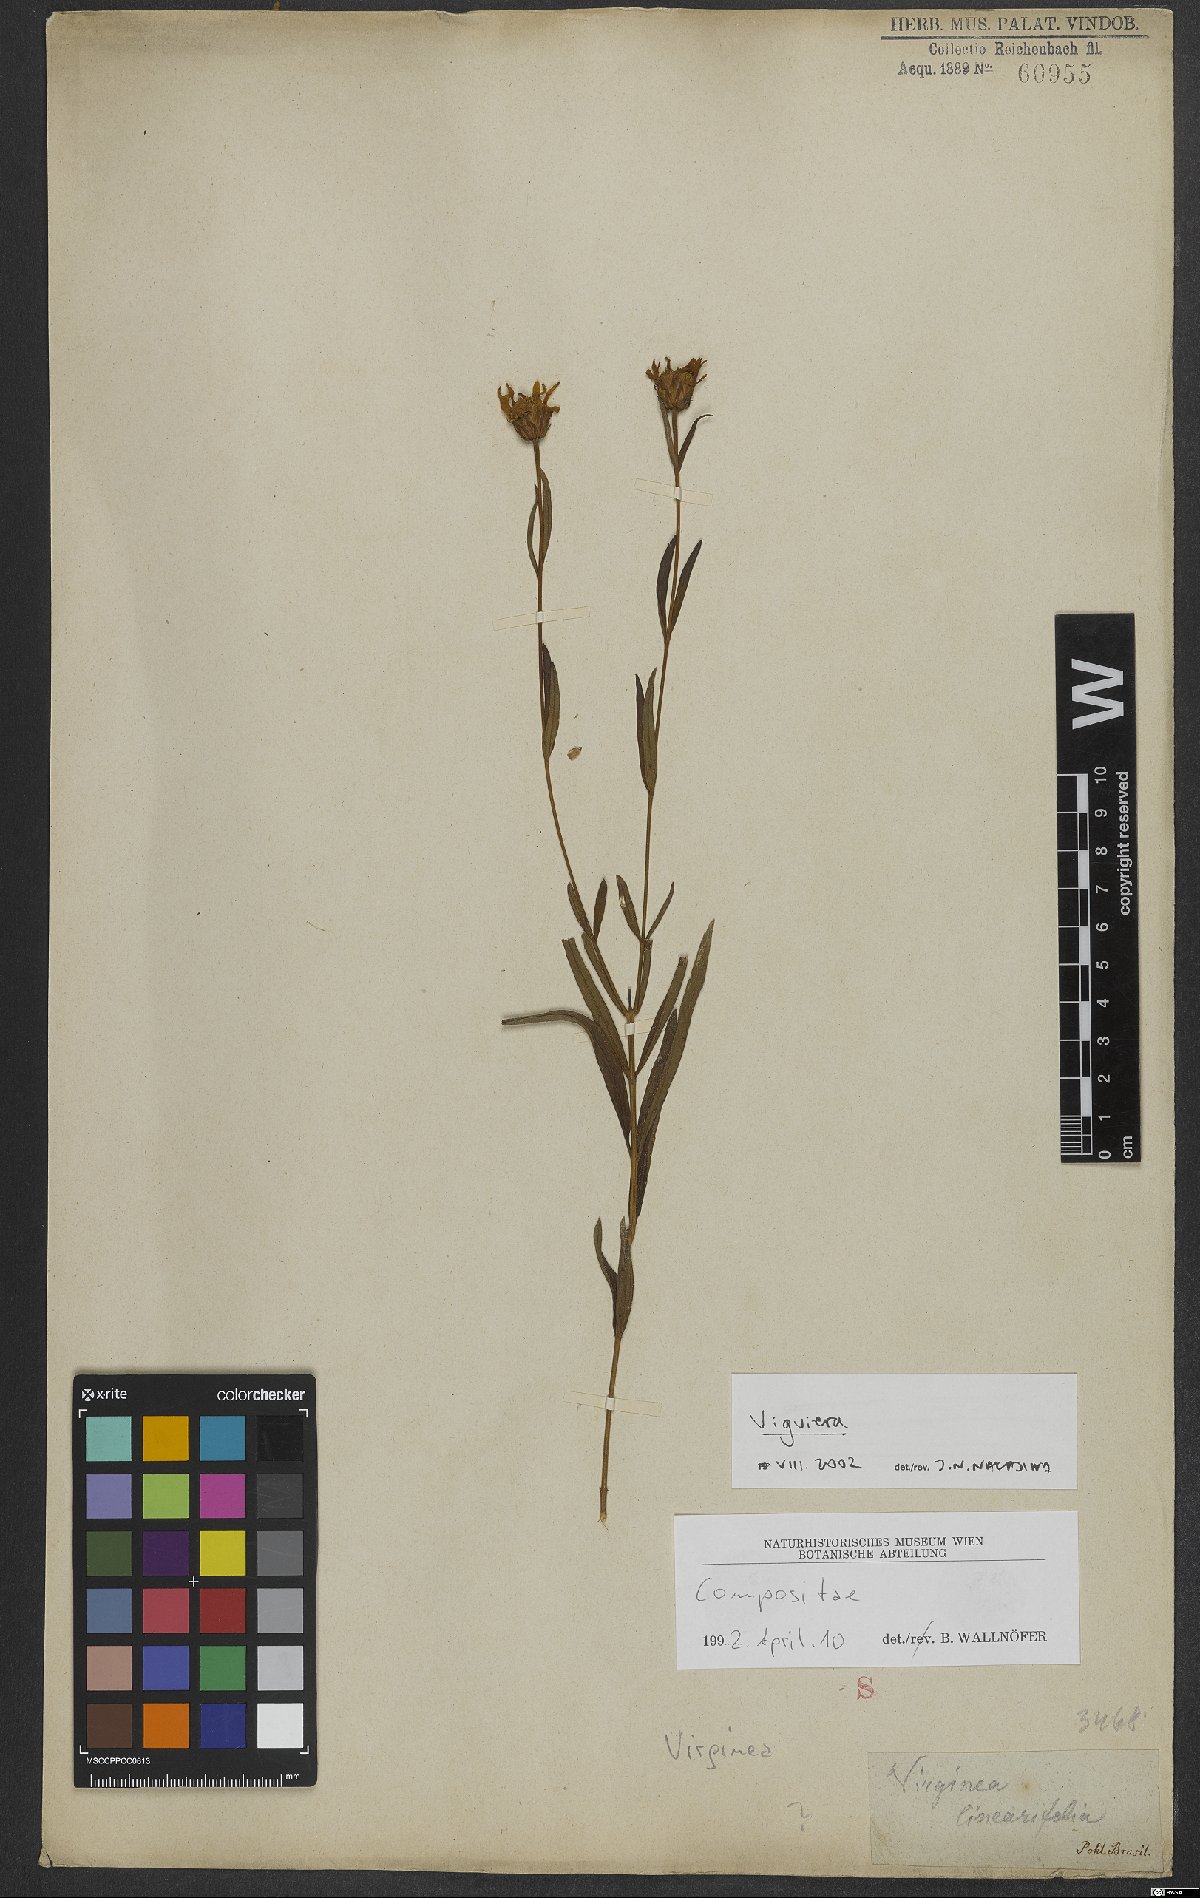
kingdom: Plantae
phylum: Tracheophyta
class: Magnoliopsida
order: Asterales
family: Asteraceae
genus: Viguiera
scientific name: Viguiera
